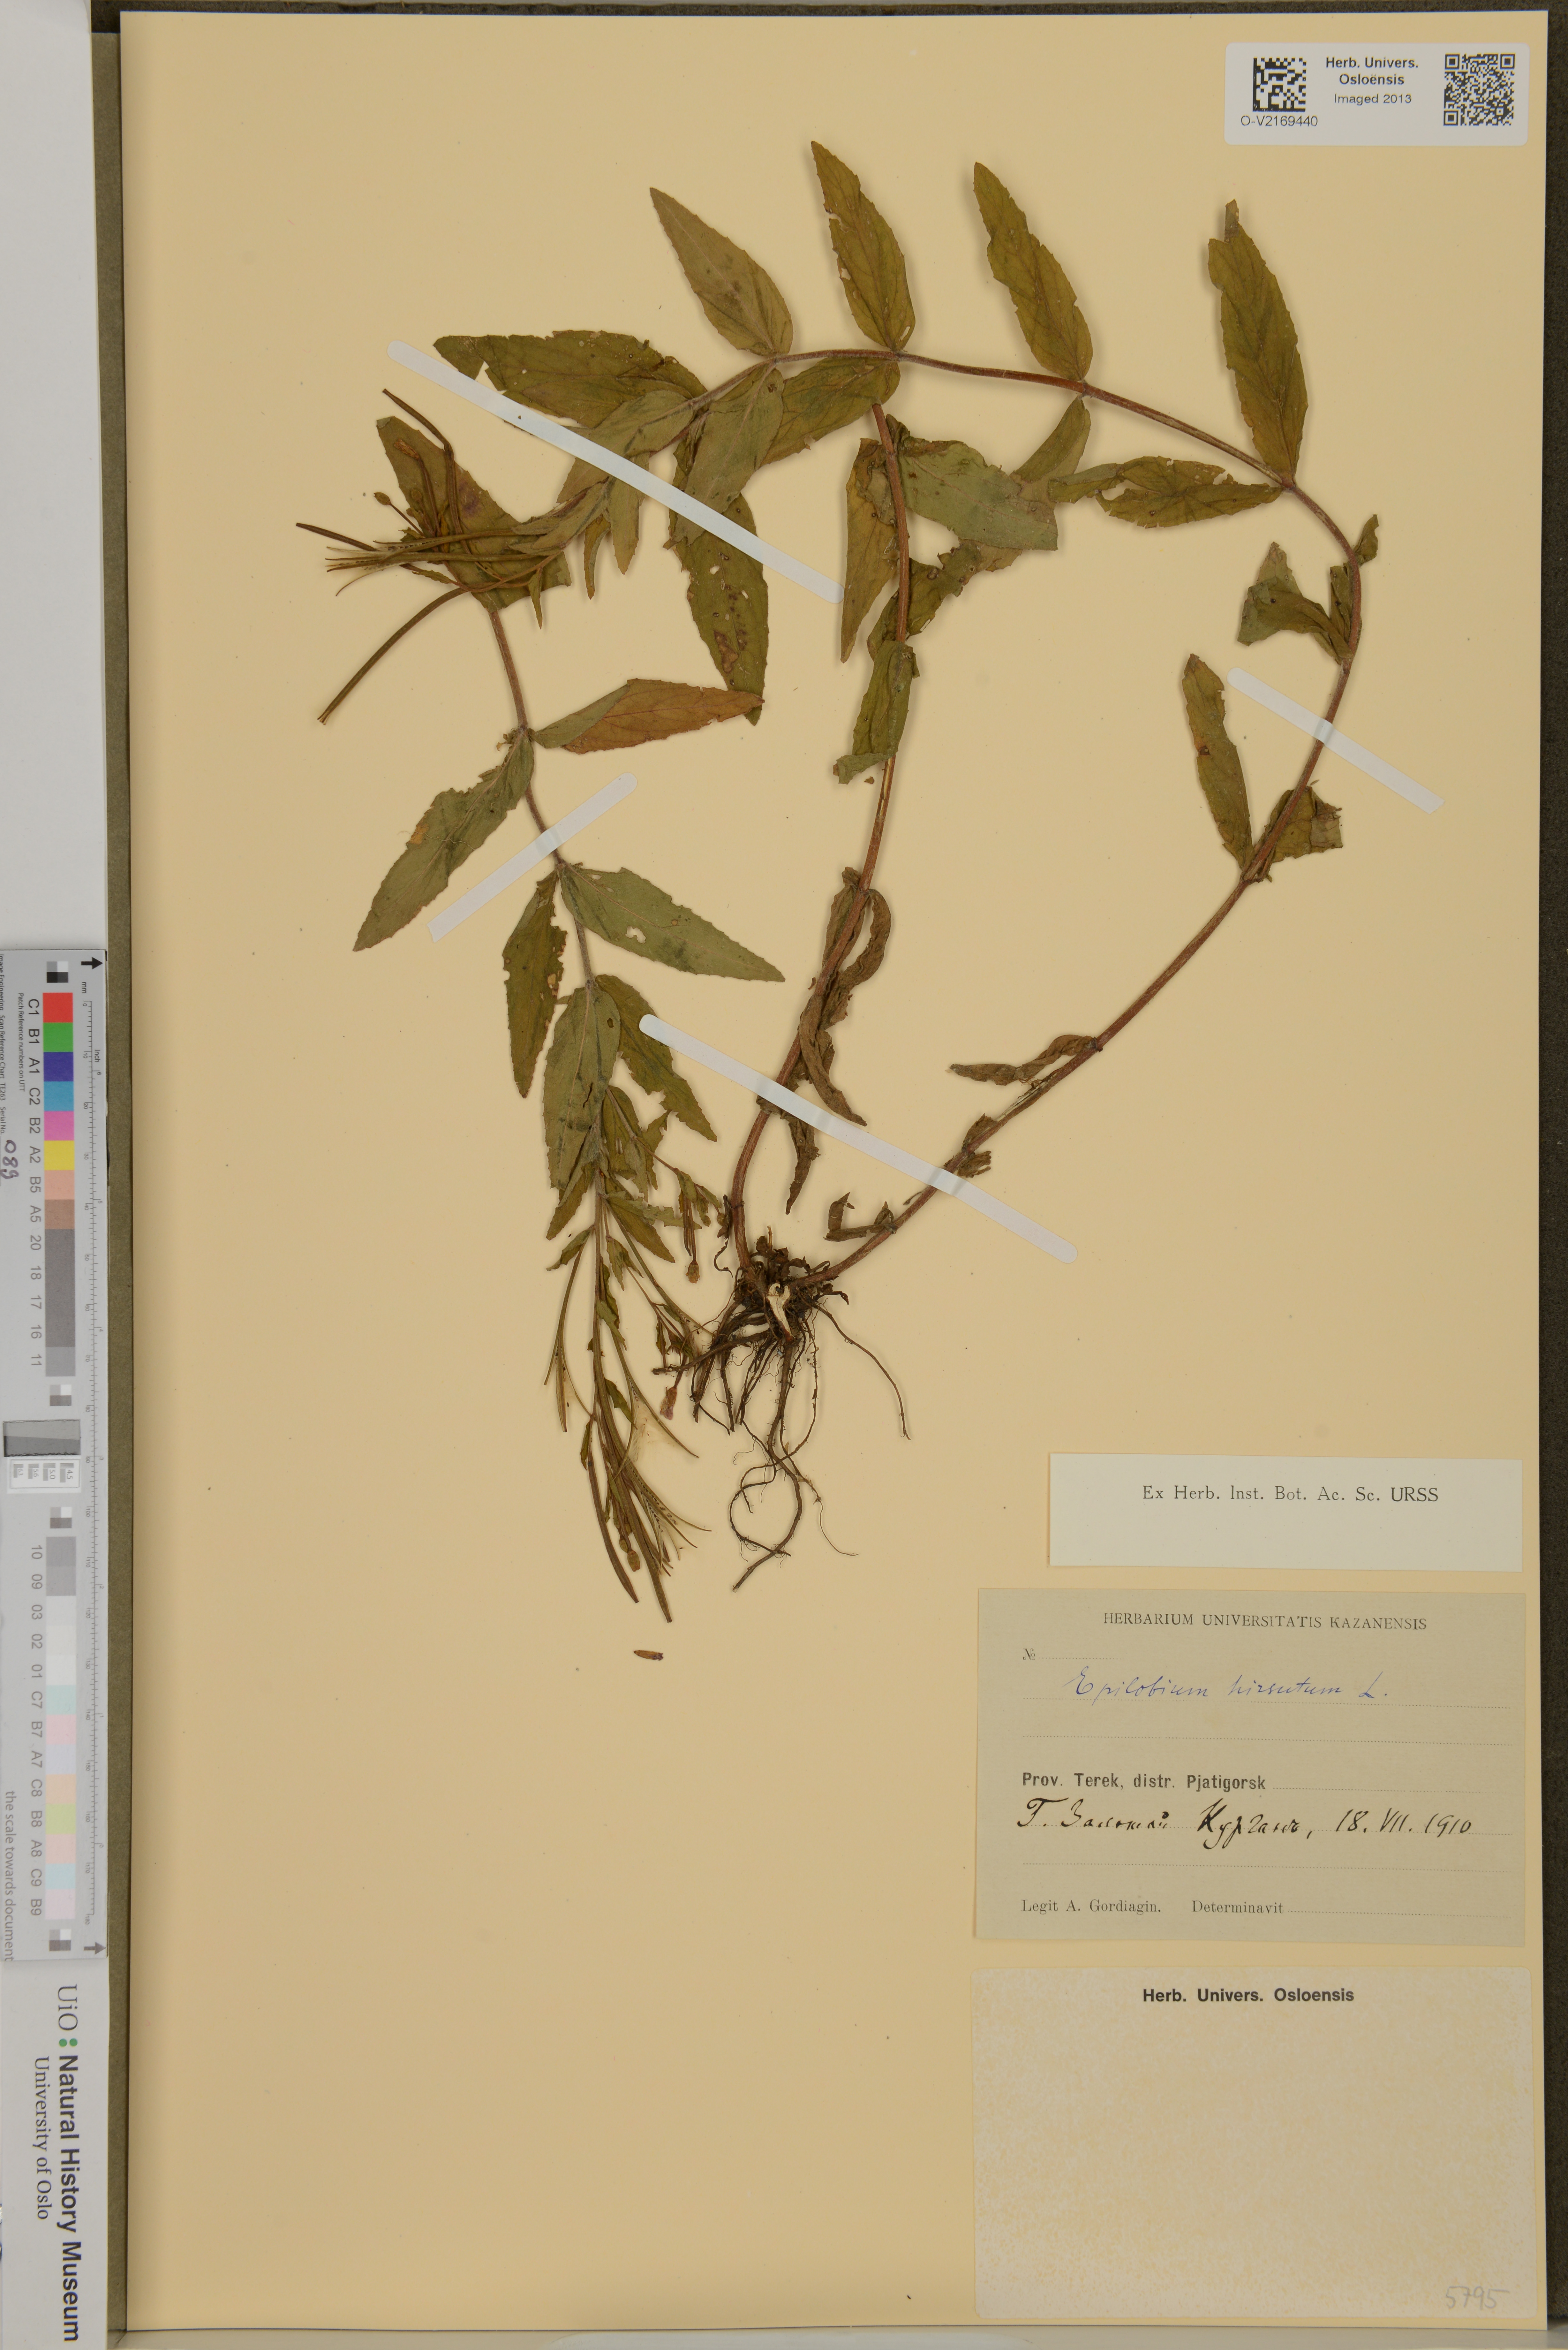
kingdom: Plantae
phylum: Tracheophyta
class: Magnoliopsida
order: Myrtales
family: Onagraceae
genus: Epilobium
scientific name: Epilobium hirsutum
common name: Great willowherb
